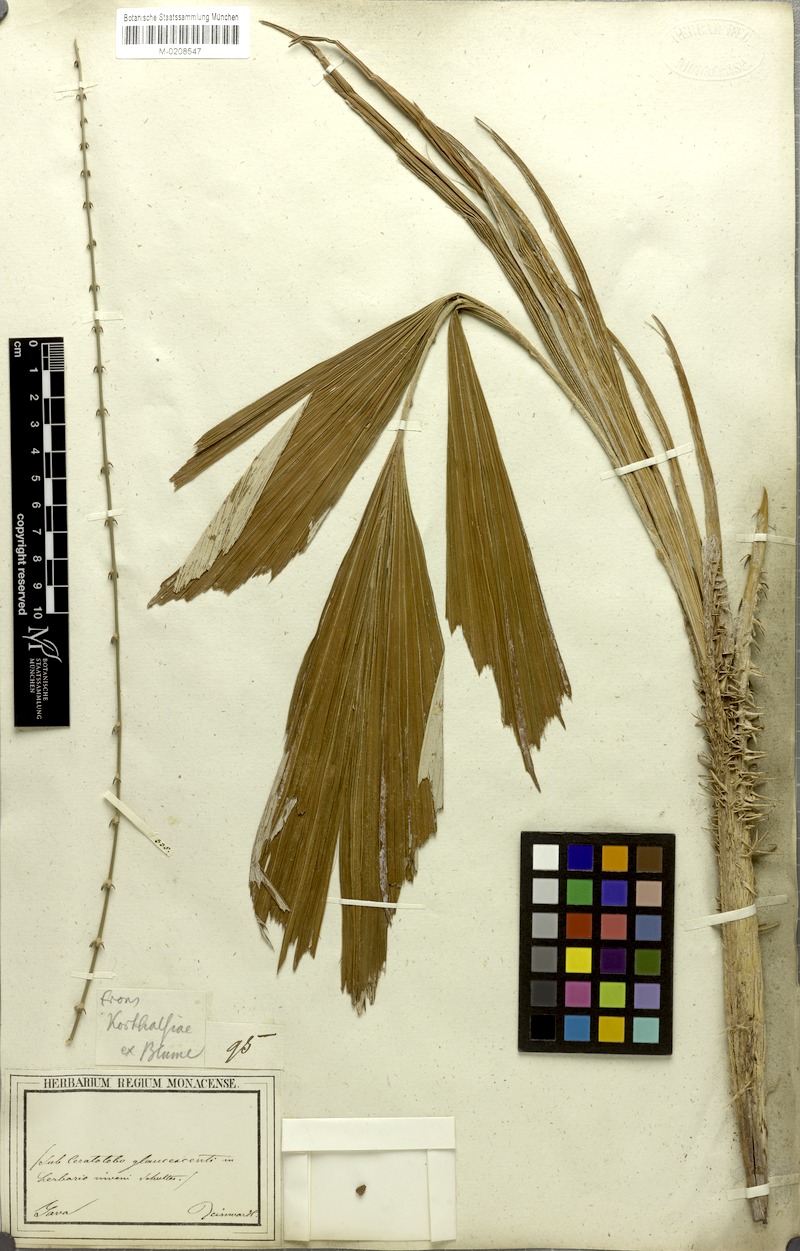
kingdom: Plantae
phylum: Tracheophyta
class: Liliopsida
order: Arecales
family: Arecaceae
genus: Calamus
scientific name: Calamus glaucescens
